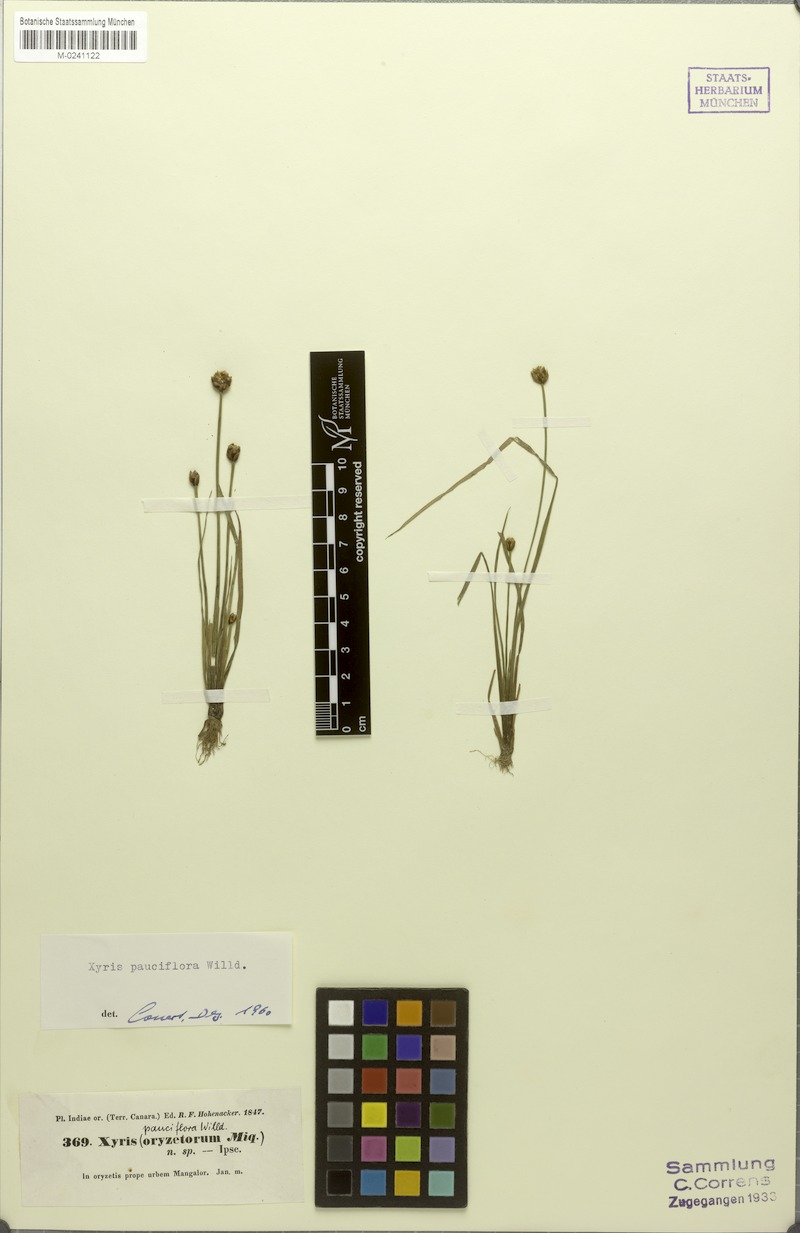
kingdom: Plantae
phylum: Tracheophyta
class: Liliopsida
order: Poales
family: Xyridaceae
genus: Xyris
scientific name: Xyris pauciflora
